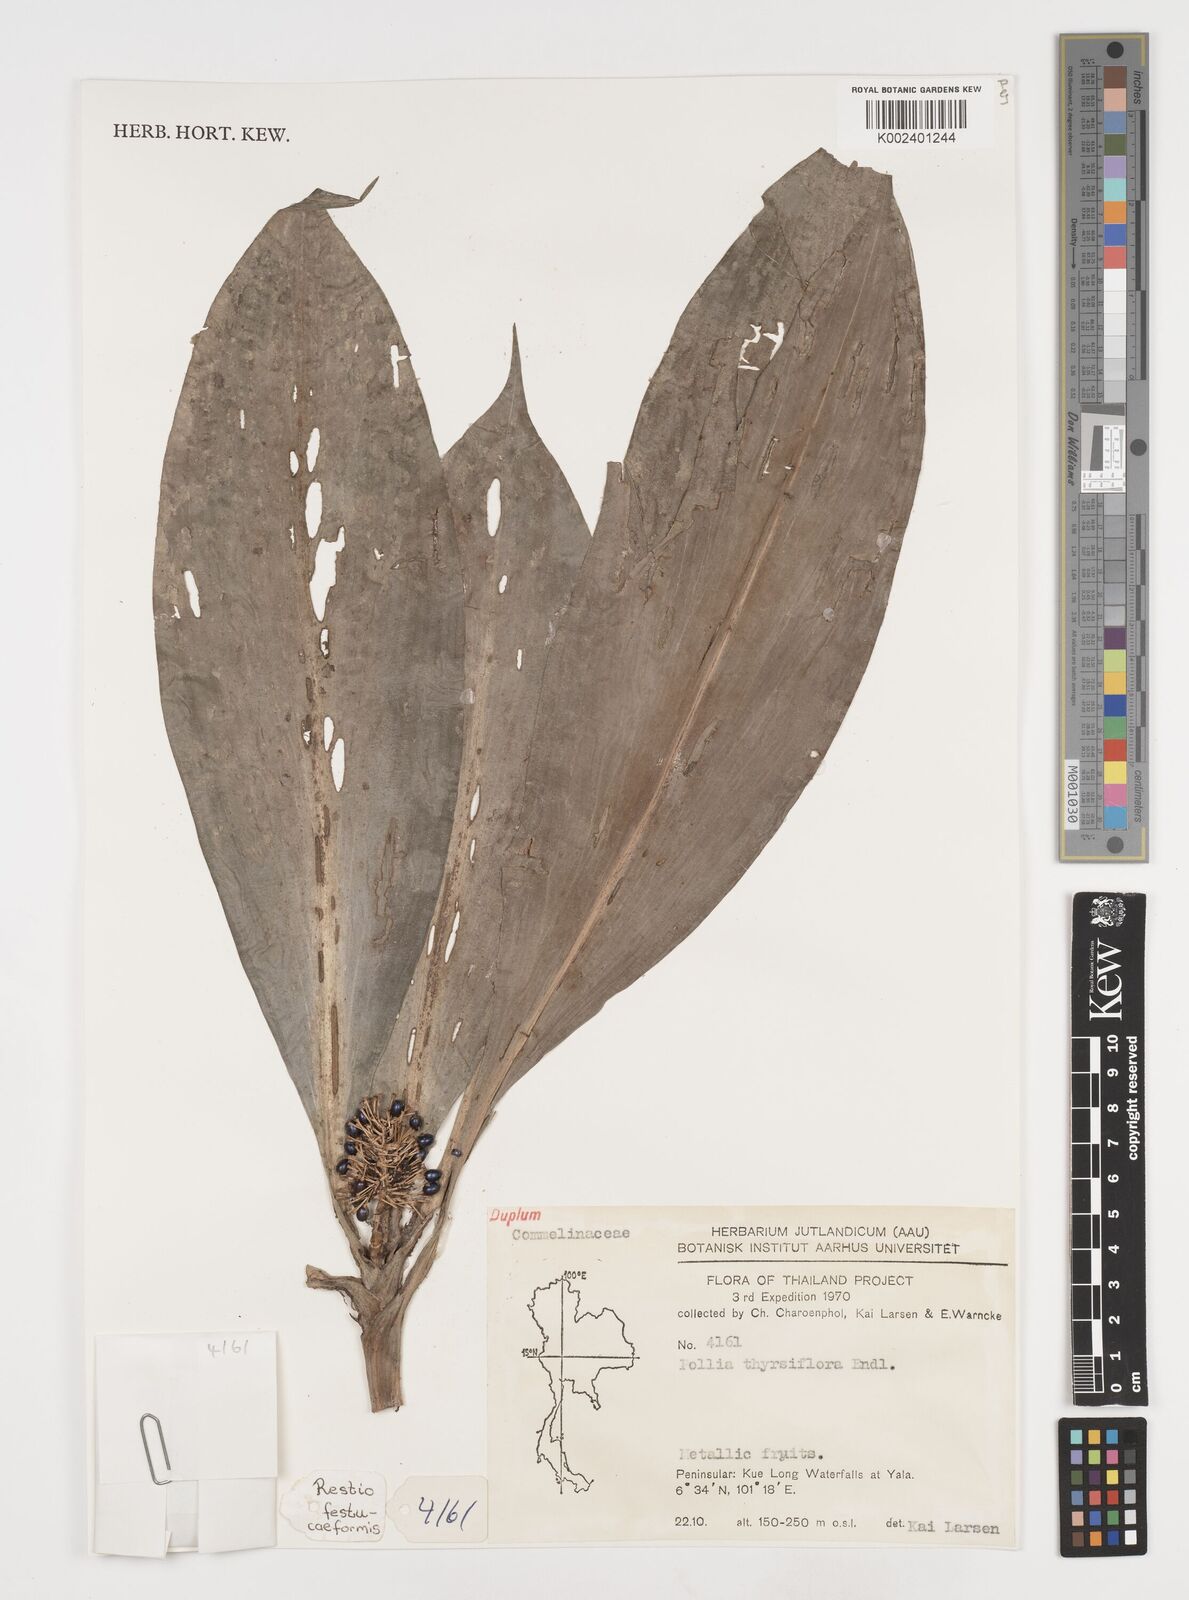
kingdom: Plantae
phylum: Tracheophyta
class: Liliopsida
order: Commelinales
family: Commelinaceae
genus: Pollia
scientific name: Pollia thyrsiflora
